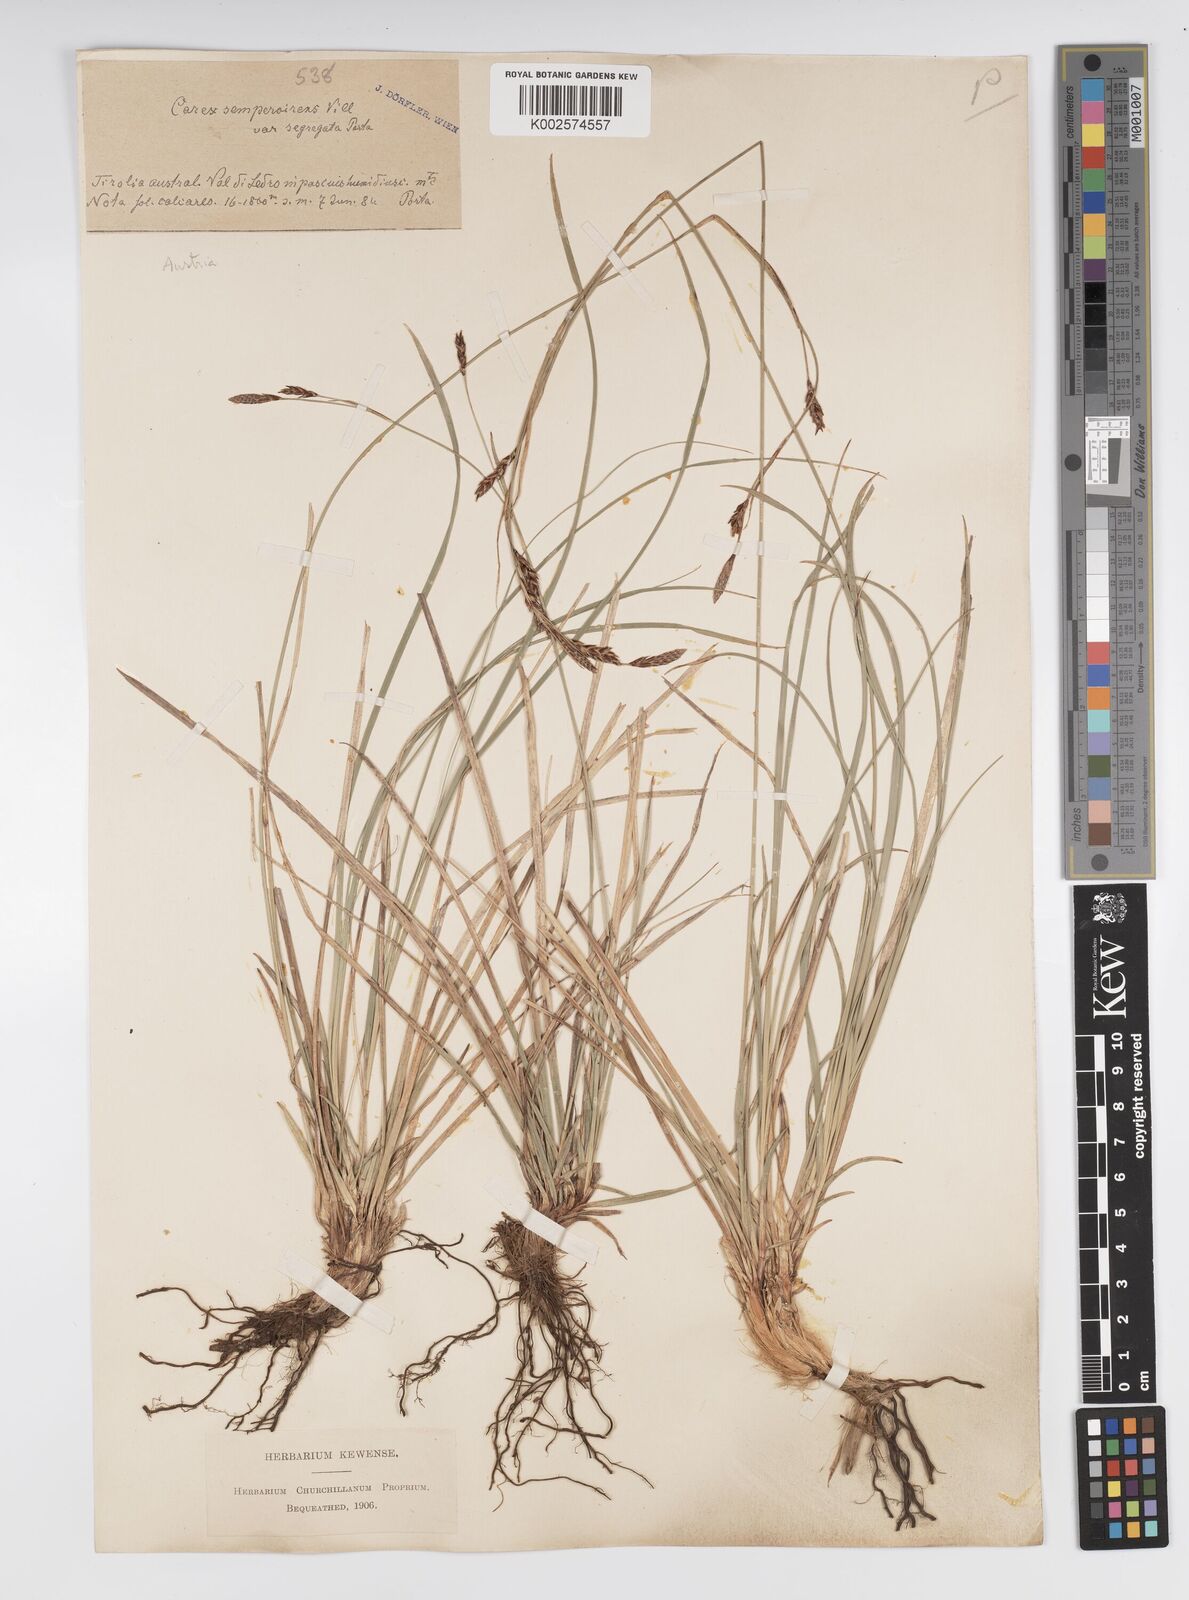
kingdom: Plantae
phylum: Tracheophyta
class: Liliopsida
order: Poales
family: Cyperaceae
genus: Carex
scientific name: Carex sempervirens
